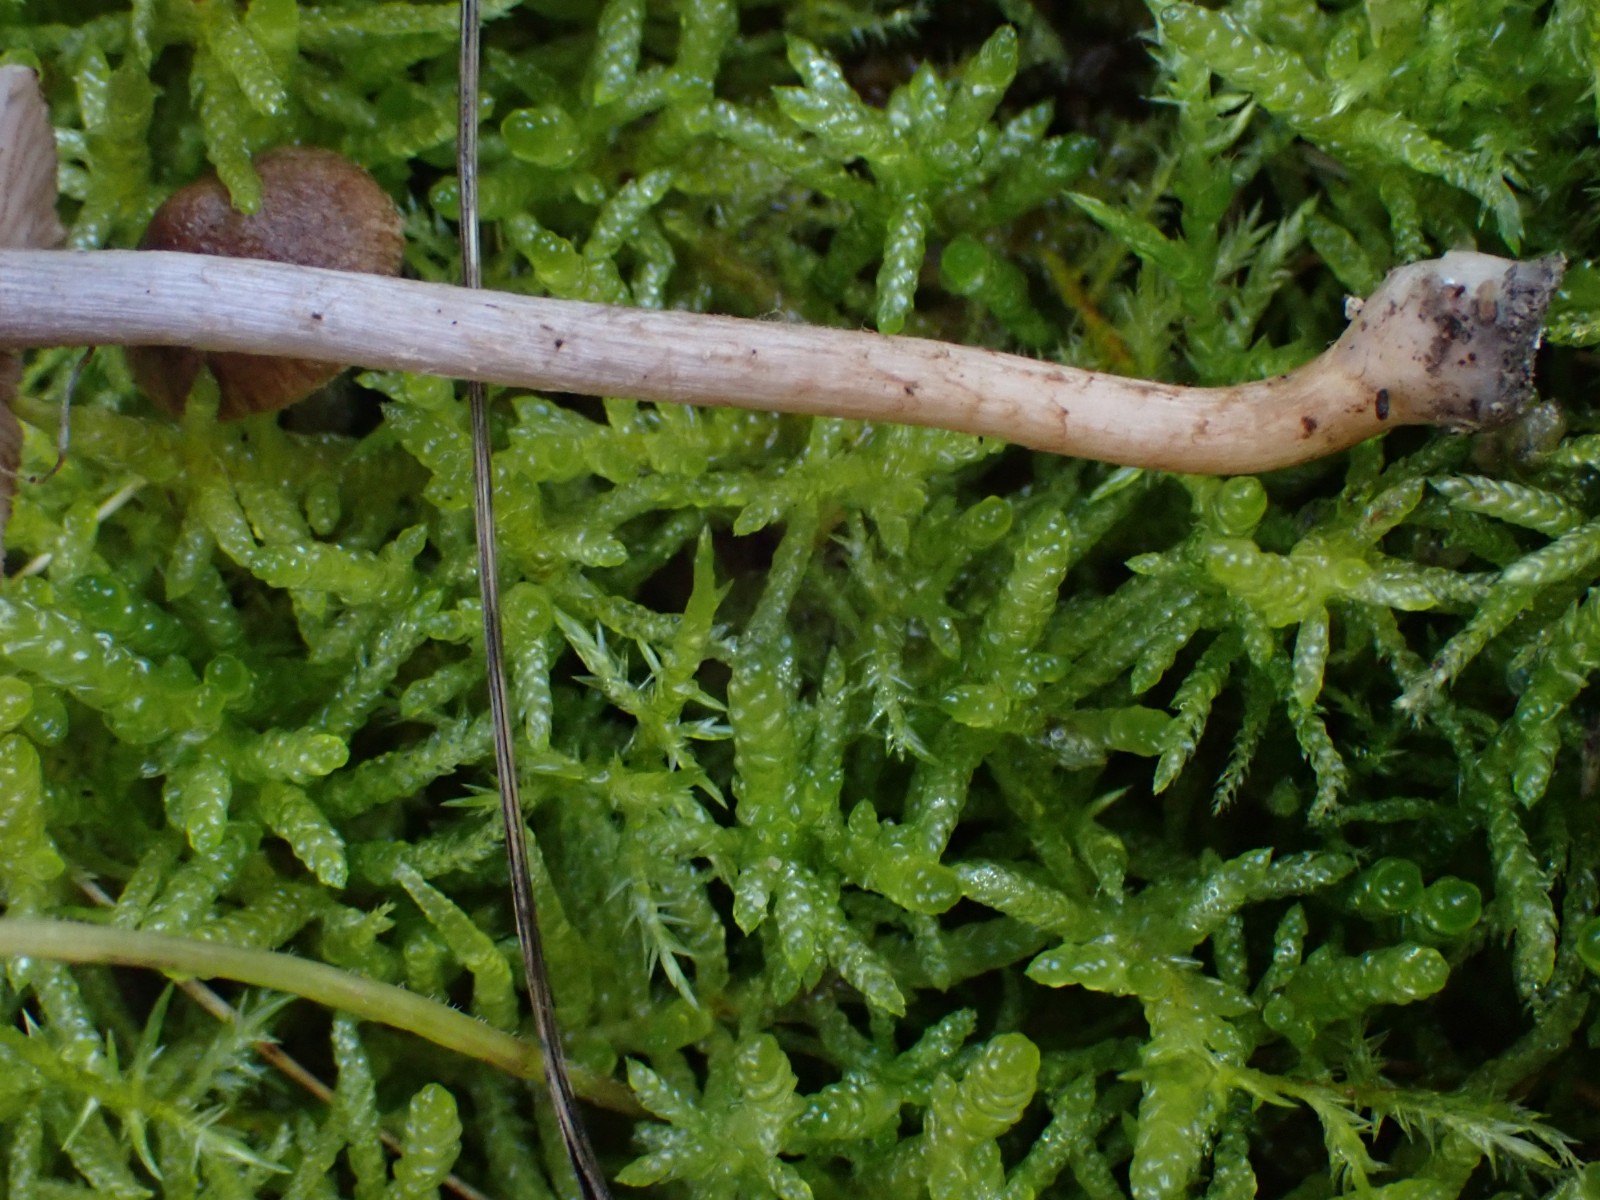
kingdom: Fungi
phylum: Basidiomycota
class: Agaricomycetes
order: Agaricales
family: Inocybaceae
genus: Inocybe
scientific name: Inocybe
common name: trævlhat
